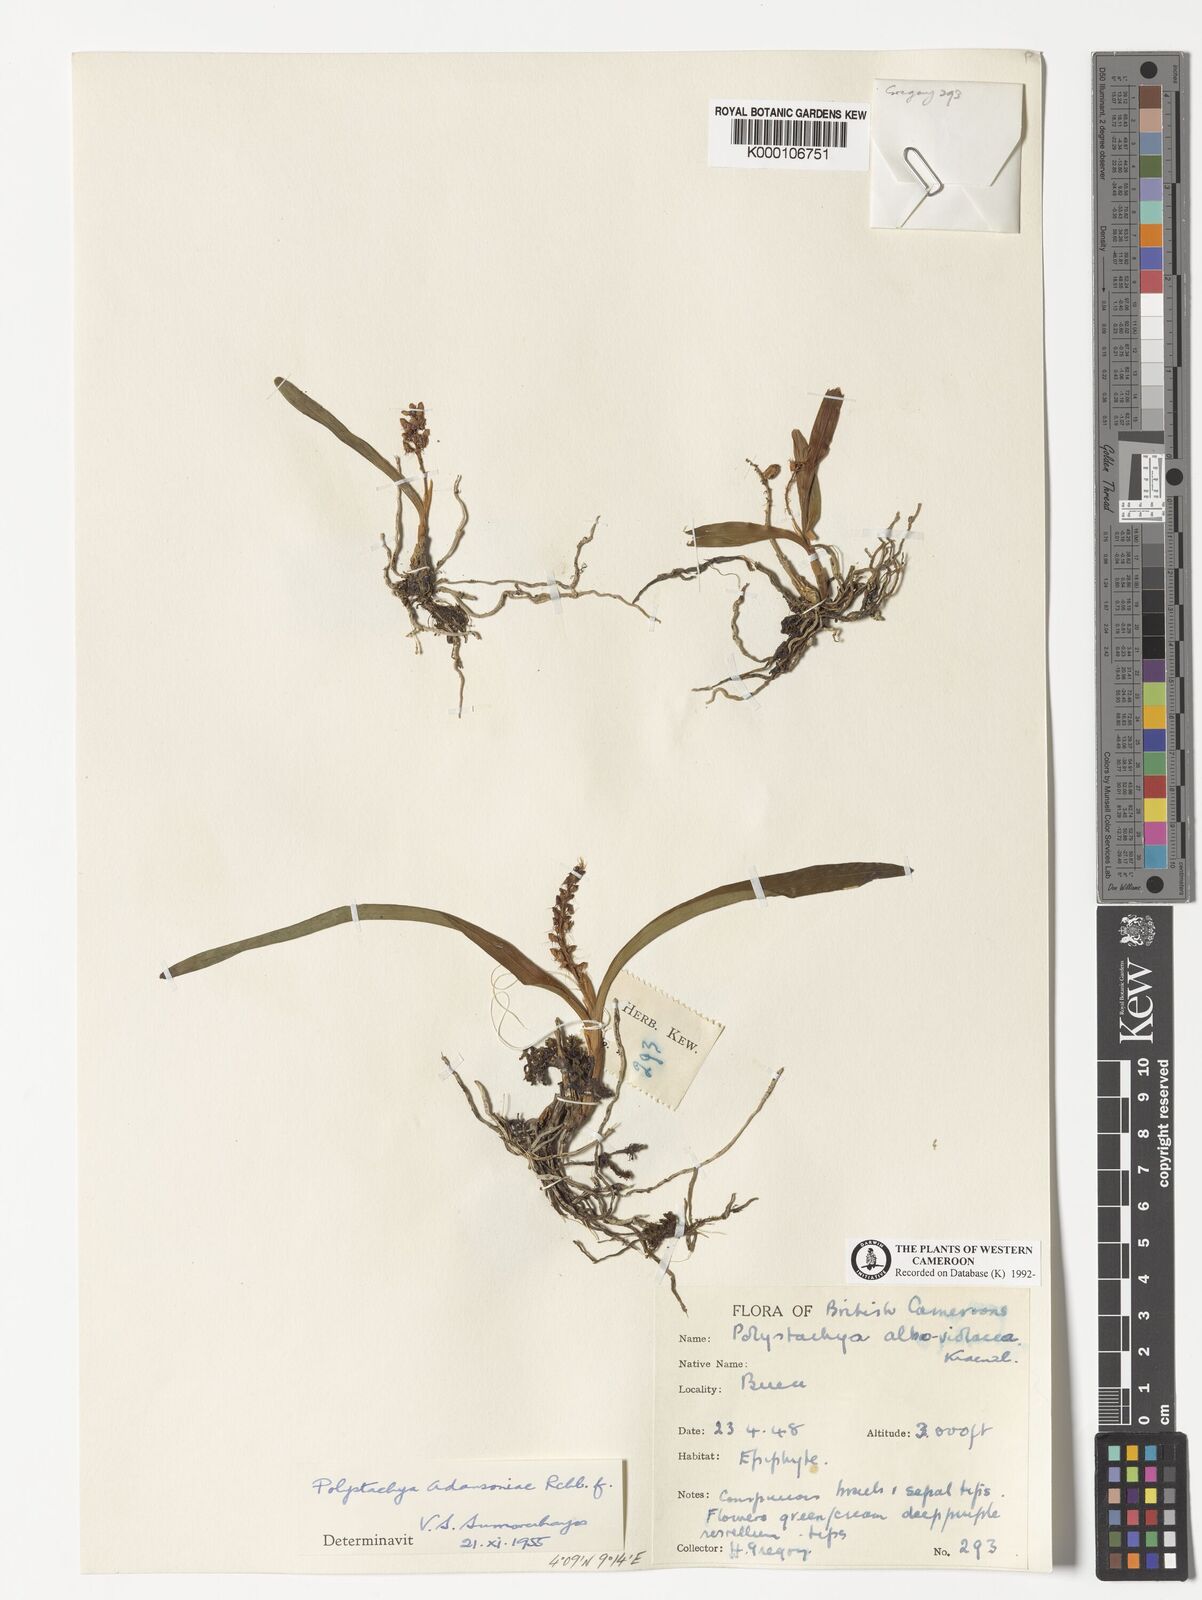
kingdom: Plantae
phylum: Tracheophyta
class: Liliopsida
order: Asparagales
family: Orchidaceae
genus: Polystachya
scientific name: Polystachya adansoniae
